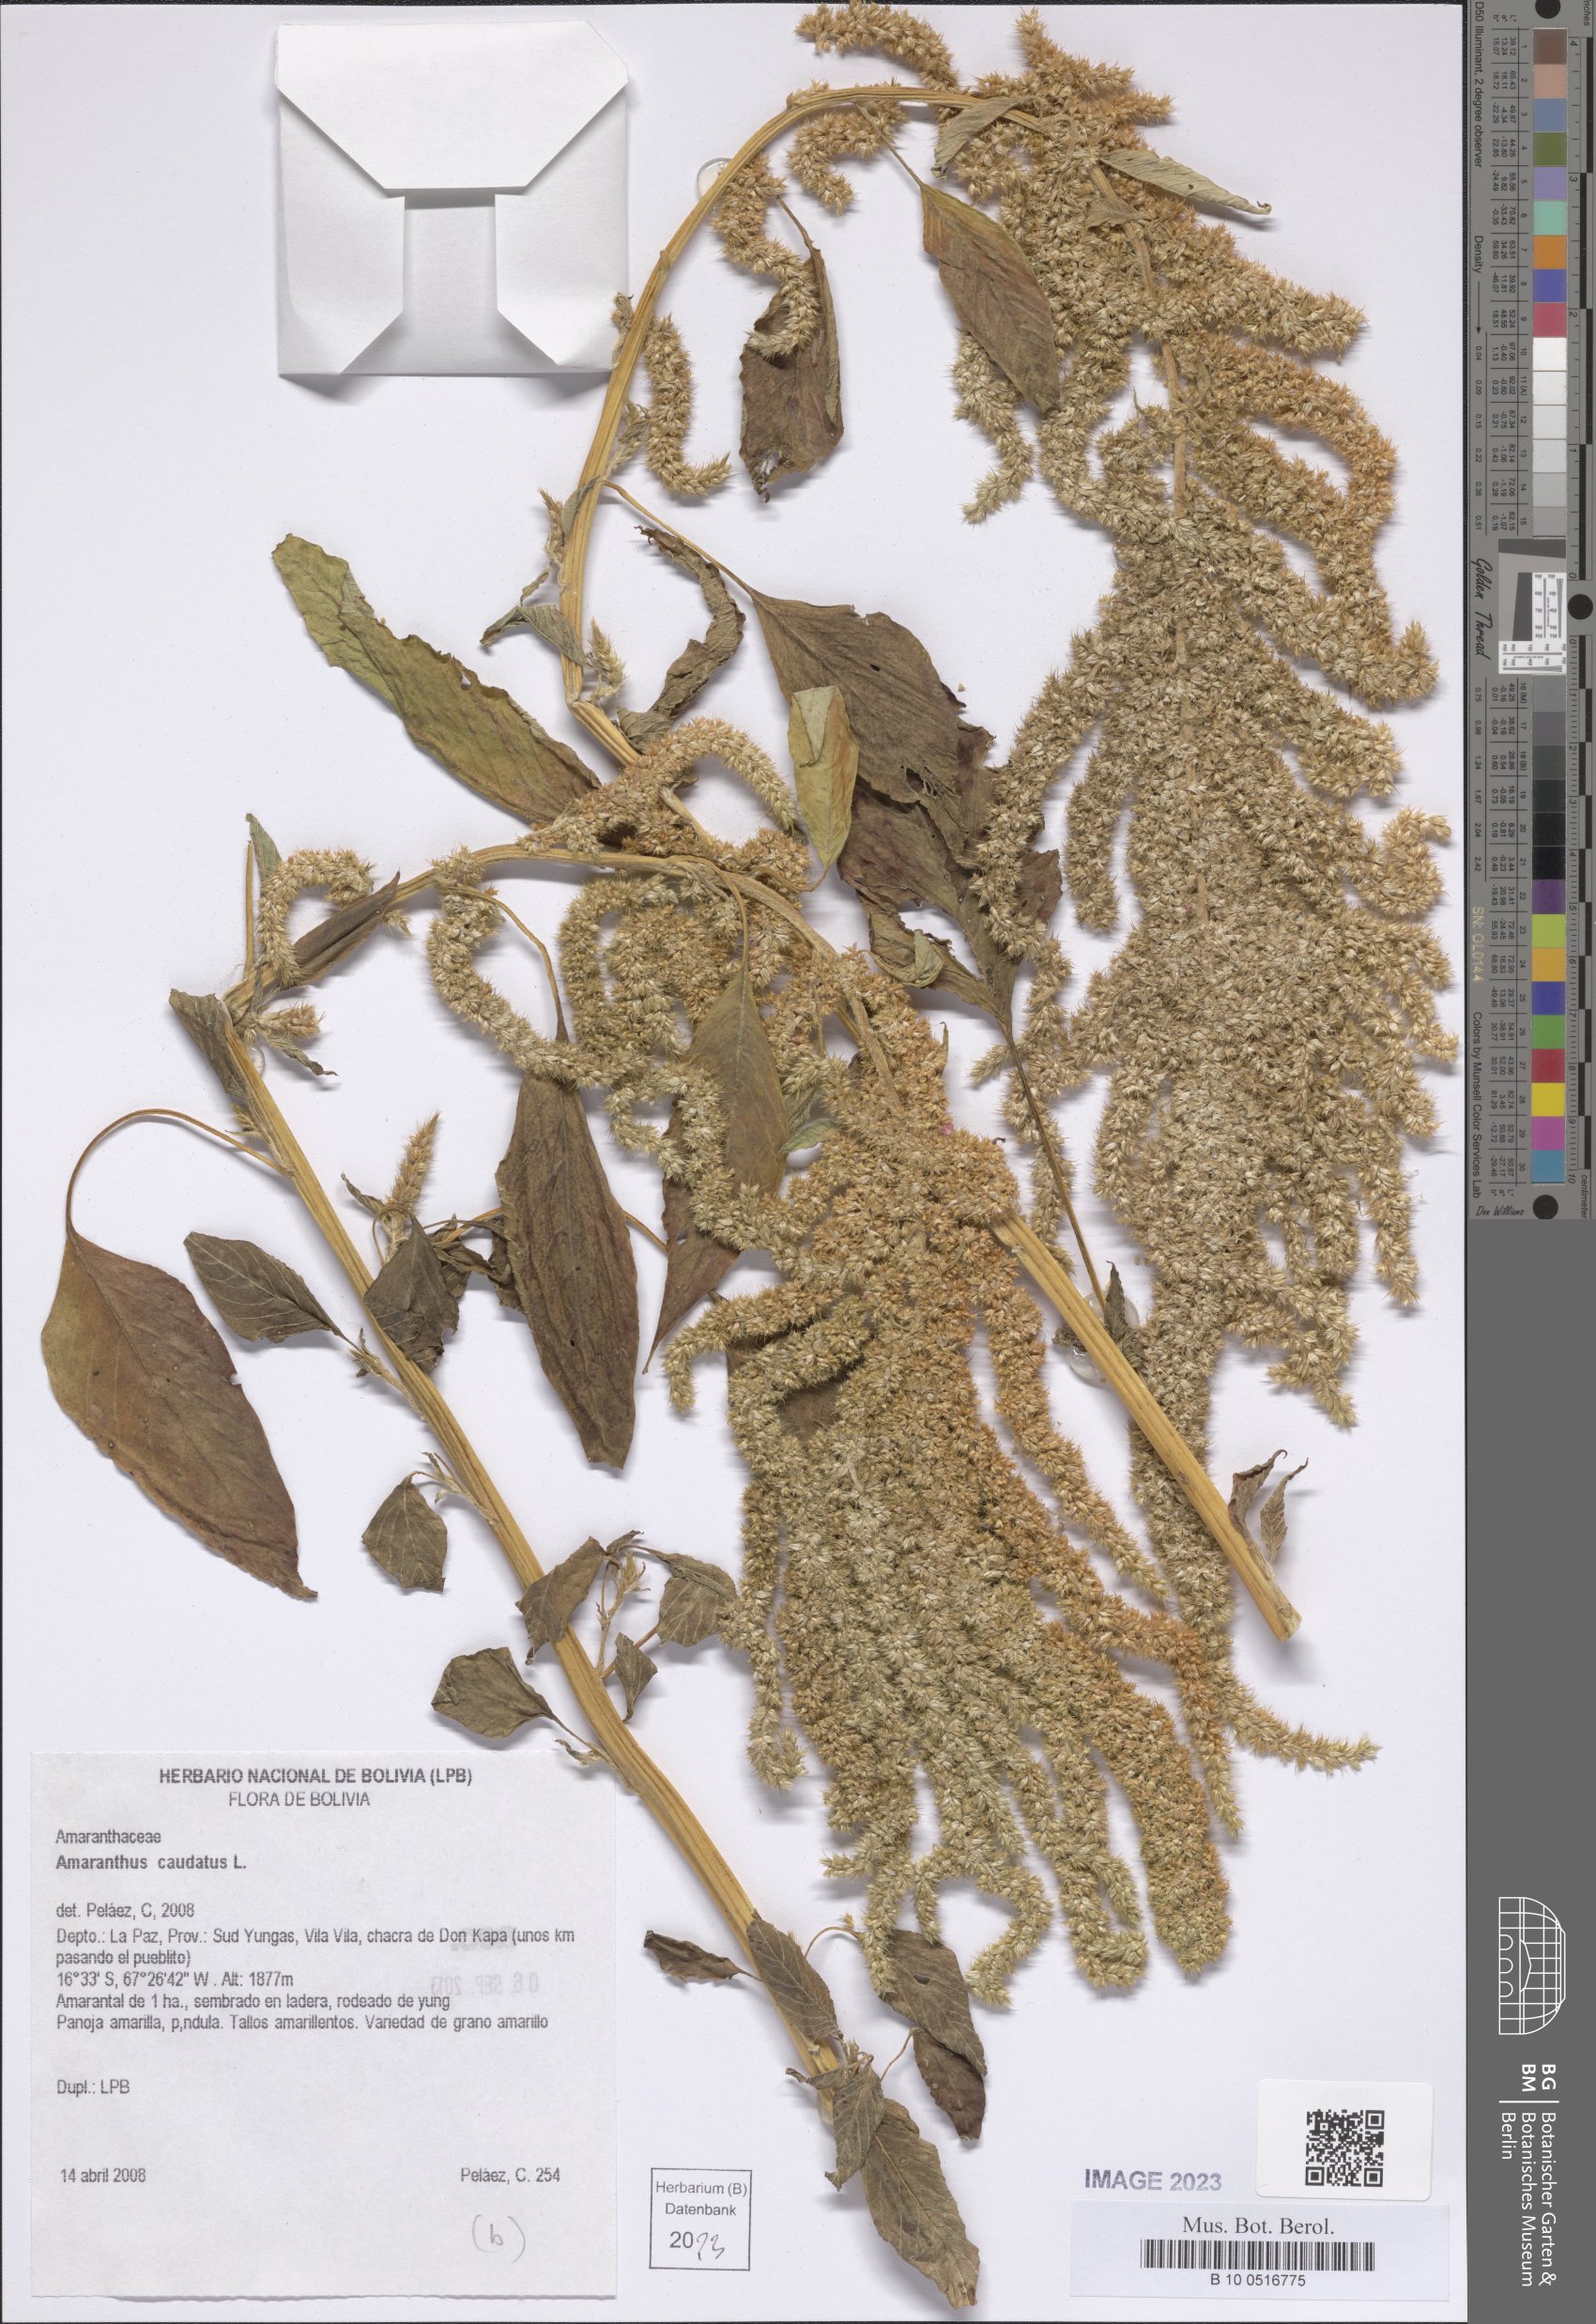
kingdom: Plantae
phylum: Tracheophyta
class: Magnoliopsida
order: Caryophyllales
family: Amaranthaceae
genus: Amaranthus
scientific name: Amaranthus caudatus
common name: Love-lies-bleeding
